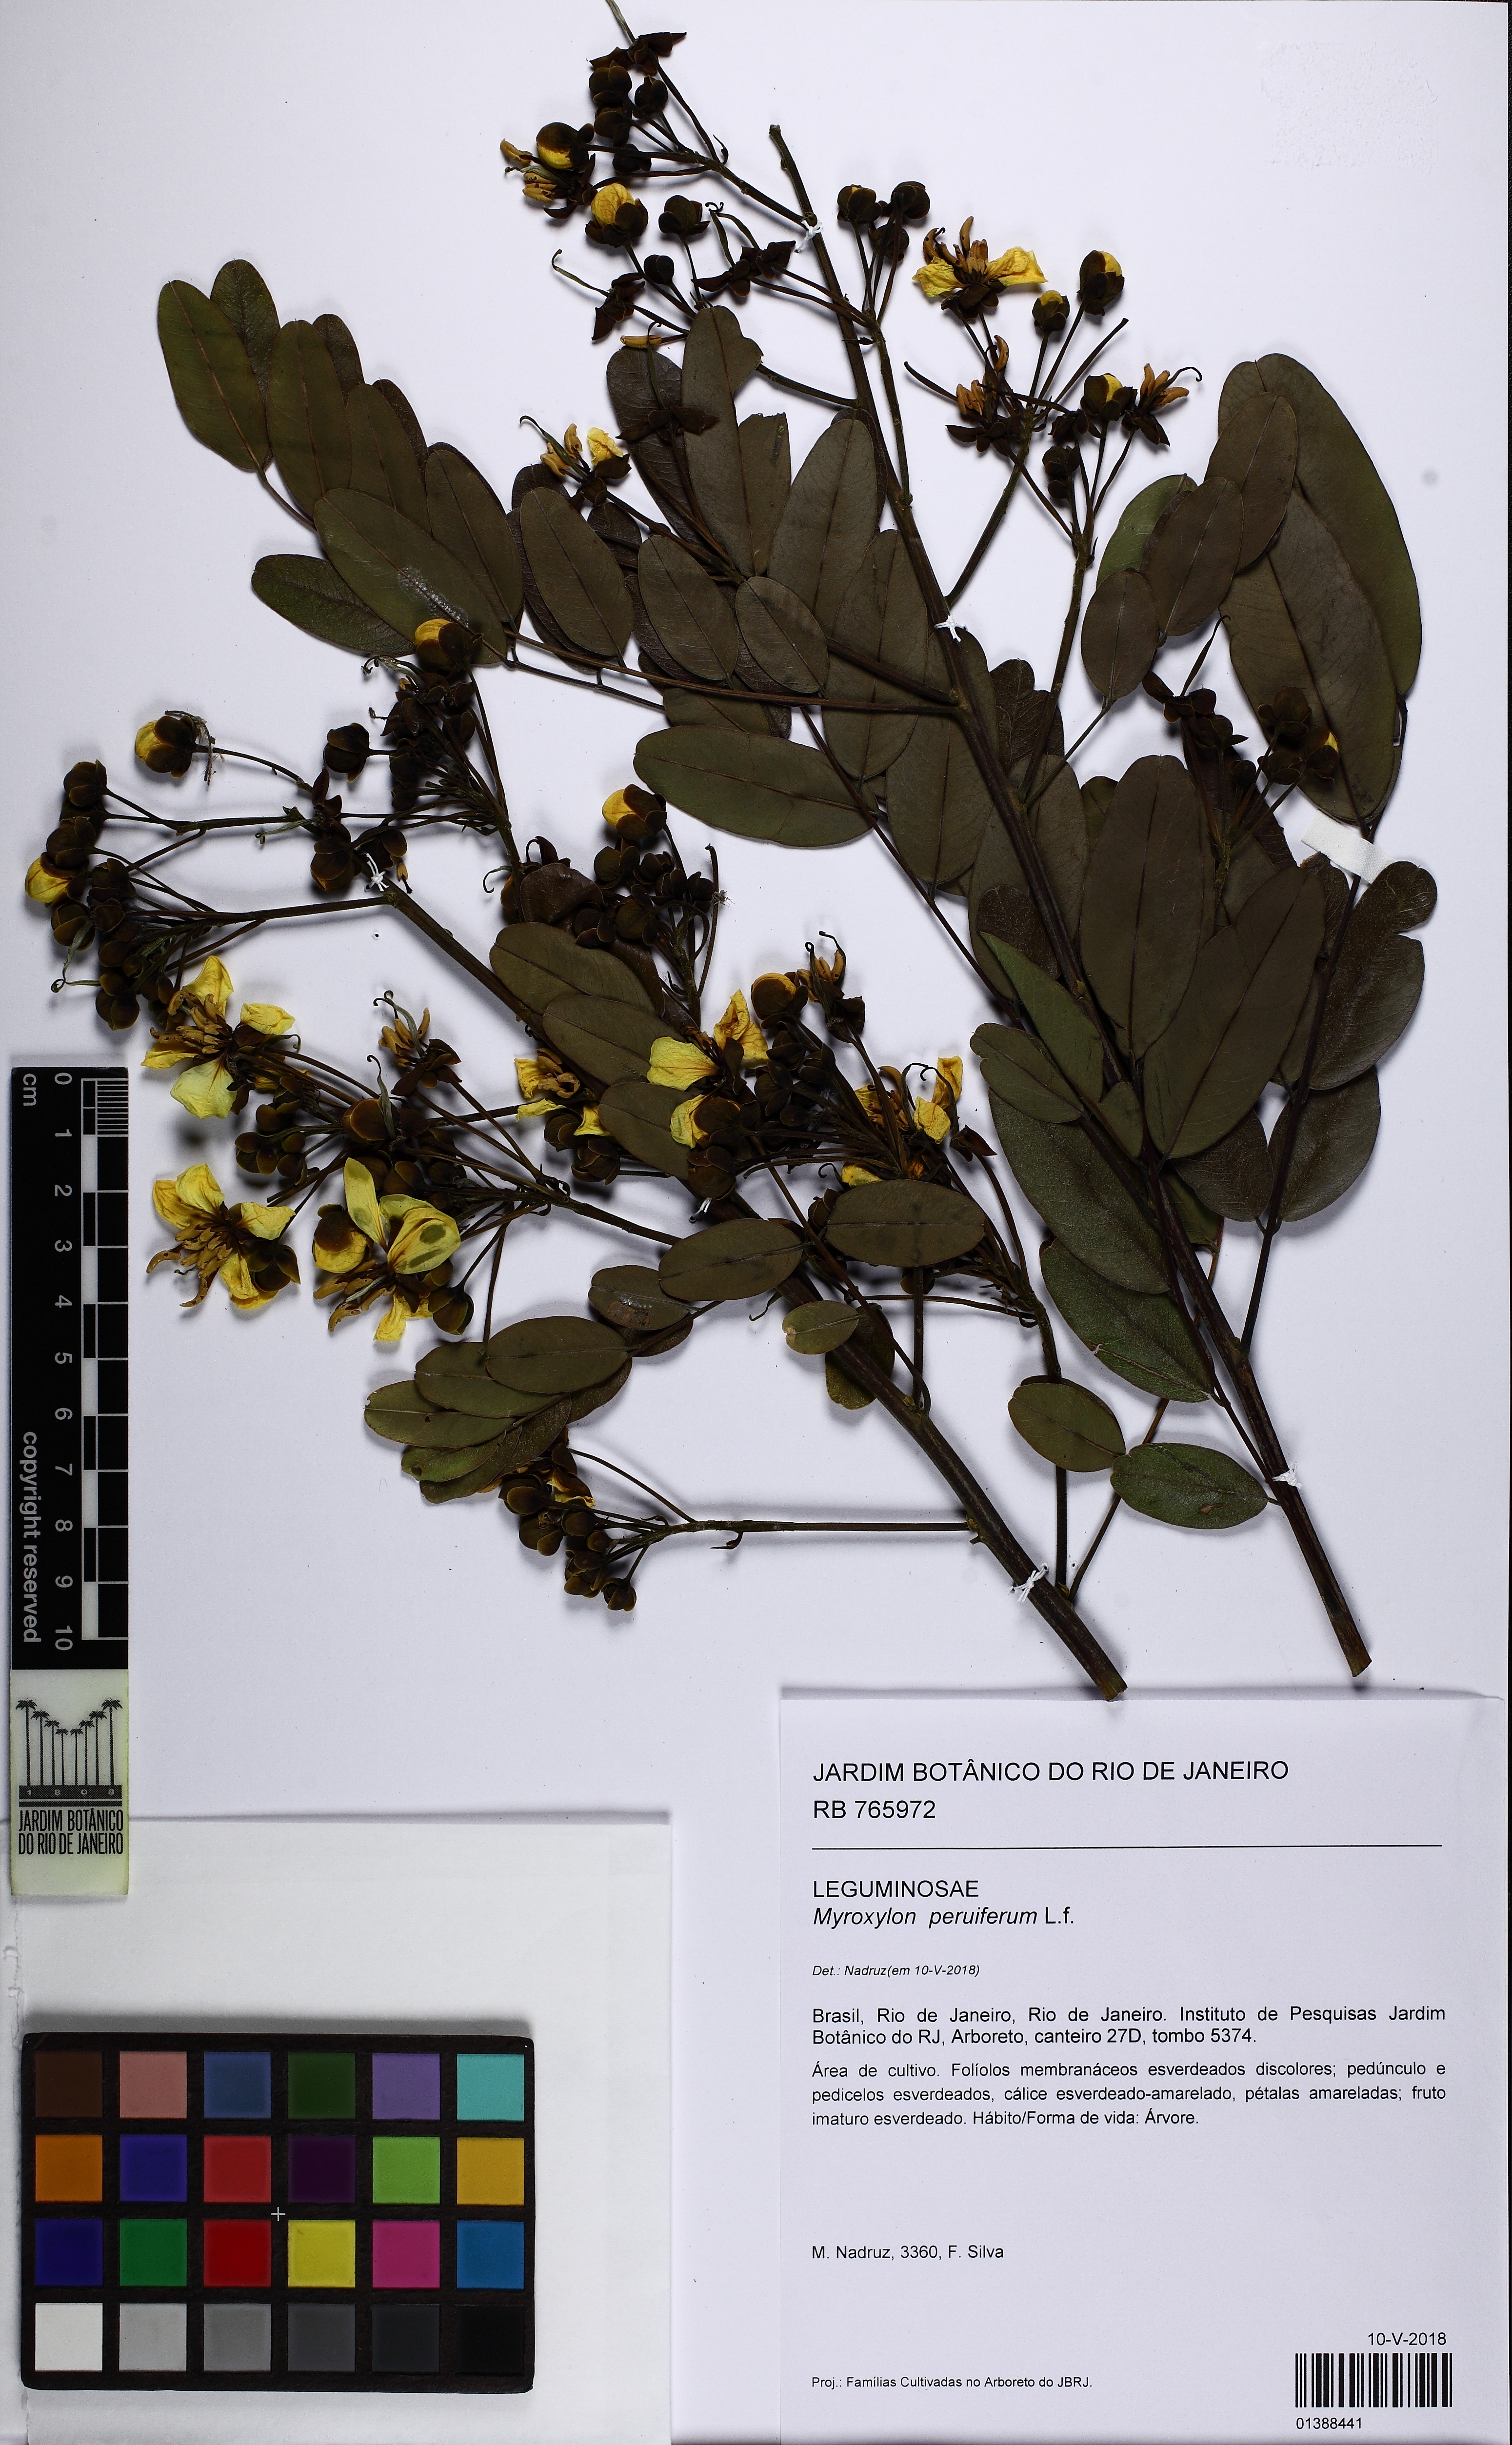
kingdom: Plantae
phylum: Tracheophyta
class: Magnoliopsida
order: Fabales
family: Fabaceae
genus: Myroxylon
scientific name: Myroxylon peruiferum
